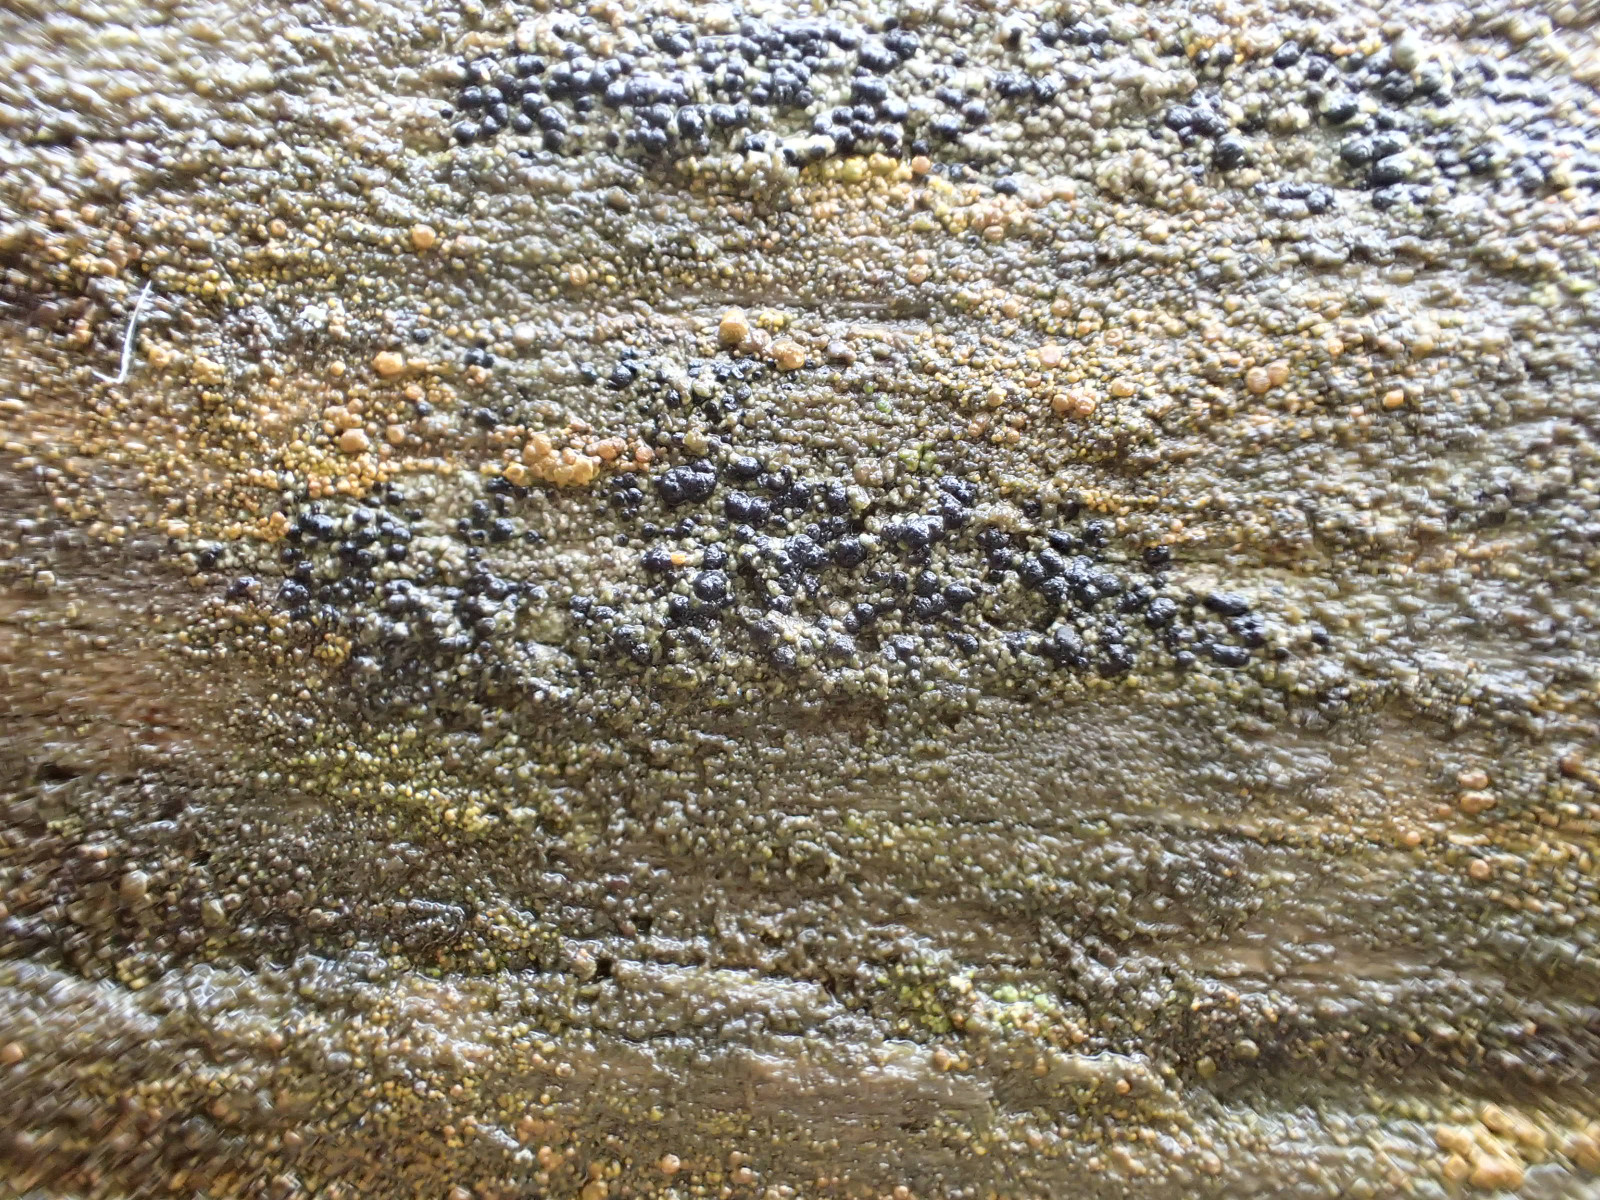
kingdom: Fungi
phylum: Ascomycota
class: Lecanoromycetes
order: Caliciales
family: Caliciaceae
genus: Amandinea
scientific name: Amandinea punctata
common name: liden sortskivelav
